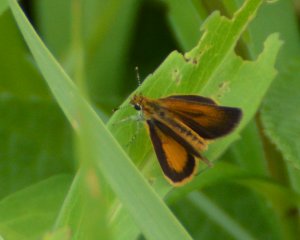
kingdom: Animalia
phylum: Arthropoda
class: Insecta
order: Lepidoptera
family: Hesperiidae
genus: Ancyloxypha
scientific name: Ancyloxypha numitor
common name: Least Skipper
